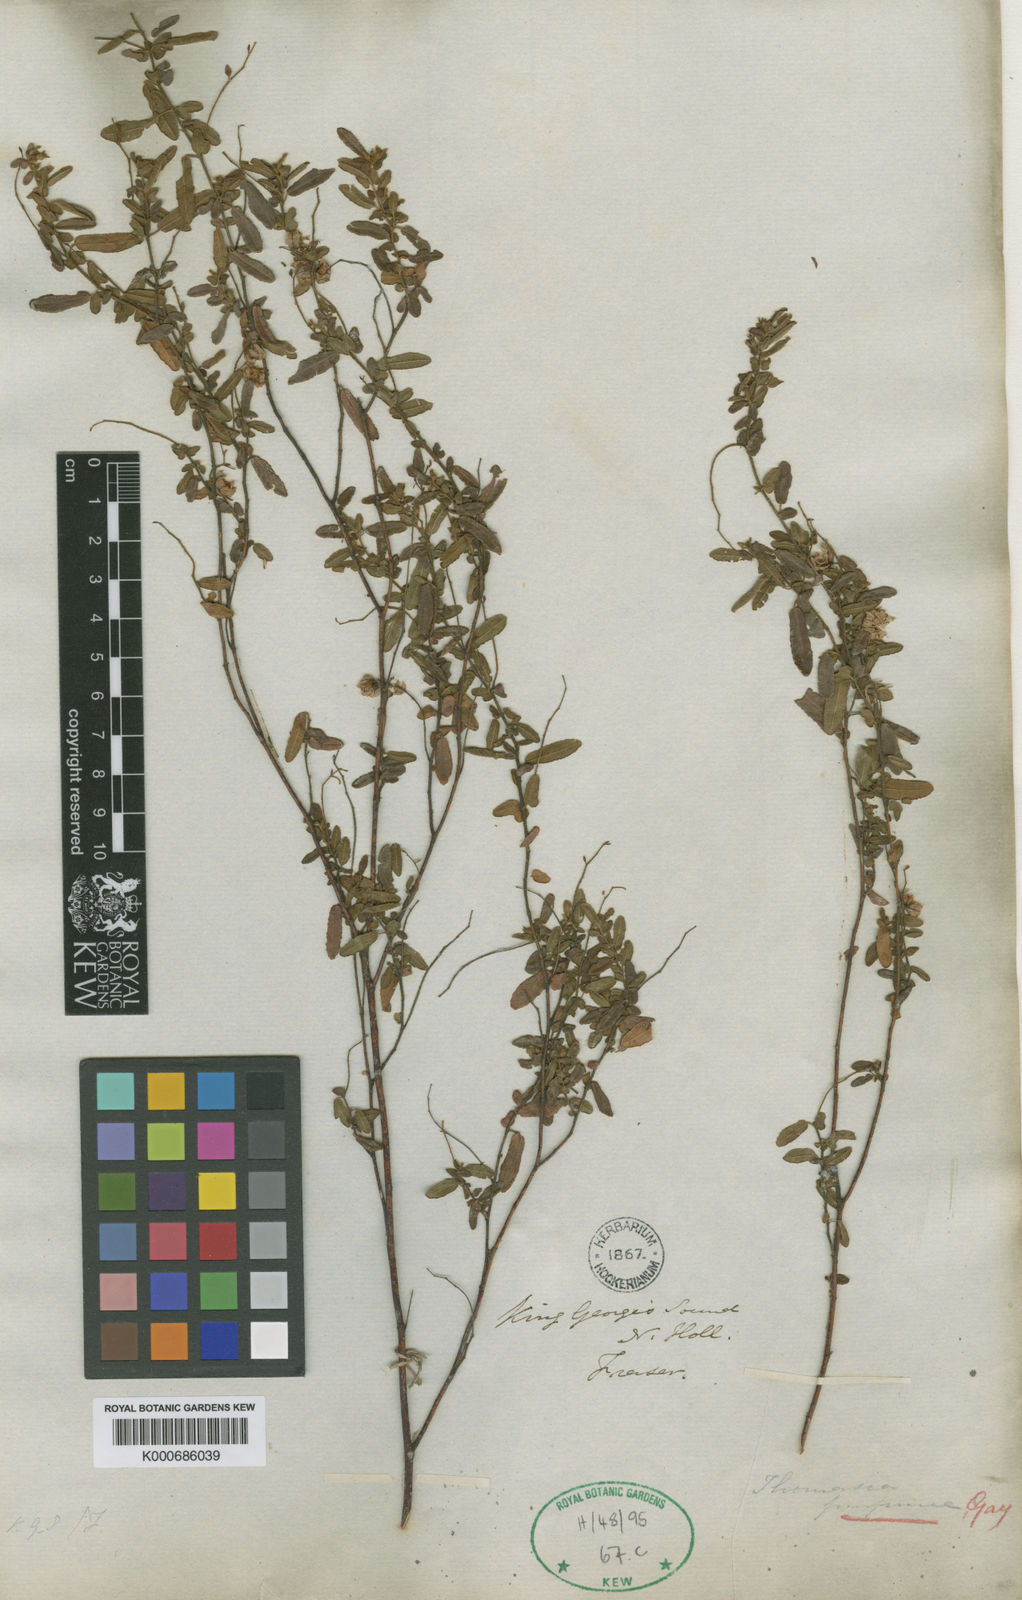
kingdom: Plantae
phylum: Tracheophyta
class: Magnoliopsida
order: Malvales
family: Malvaceae
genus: Thomasia
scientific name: Thomasia purpurea
